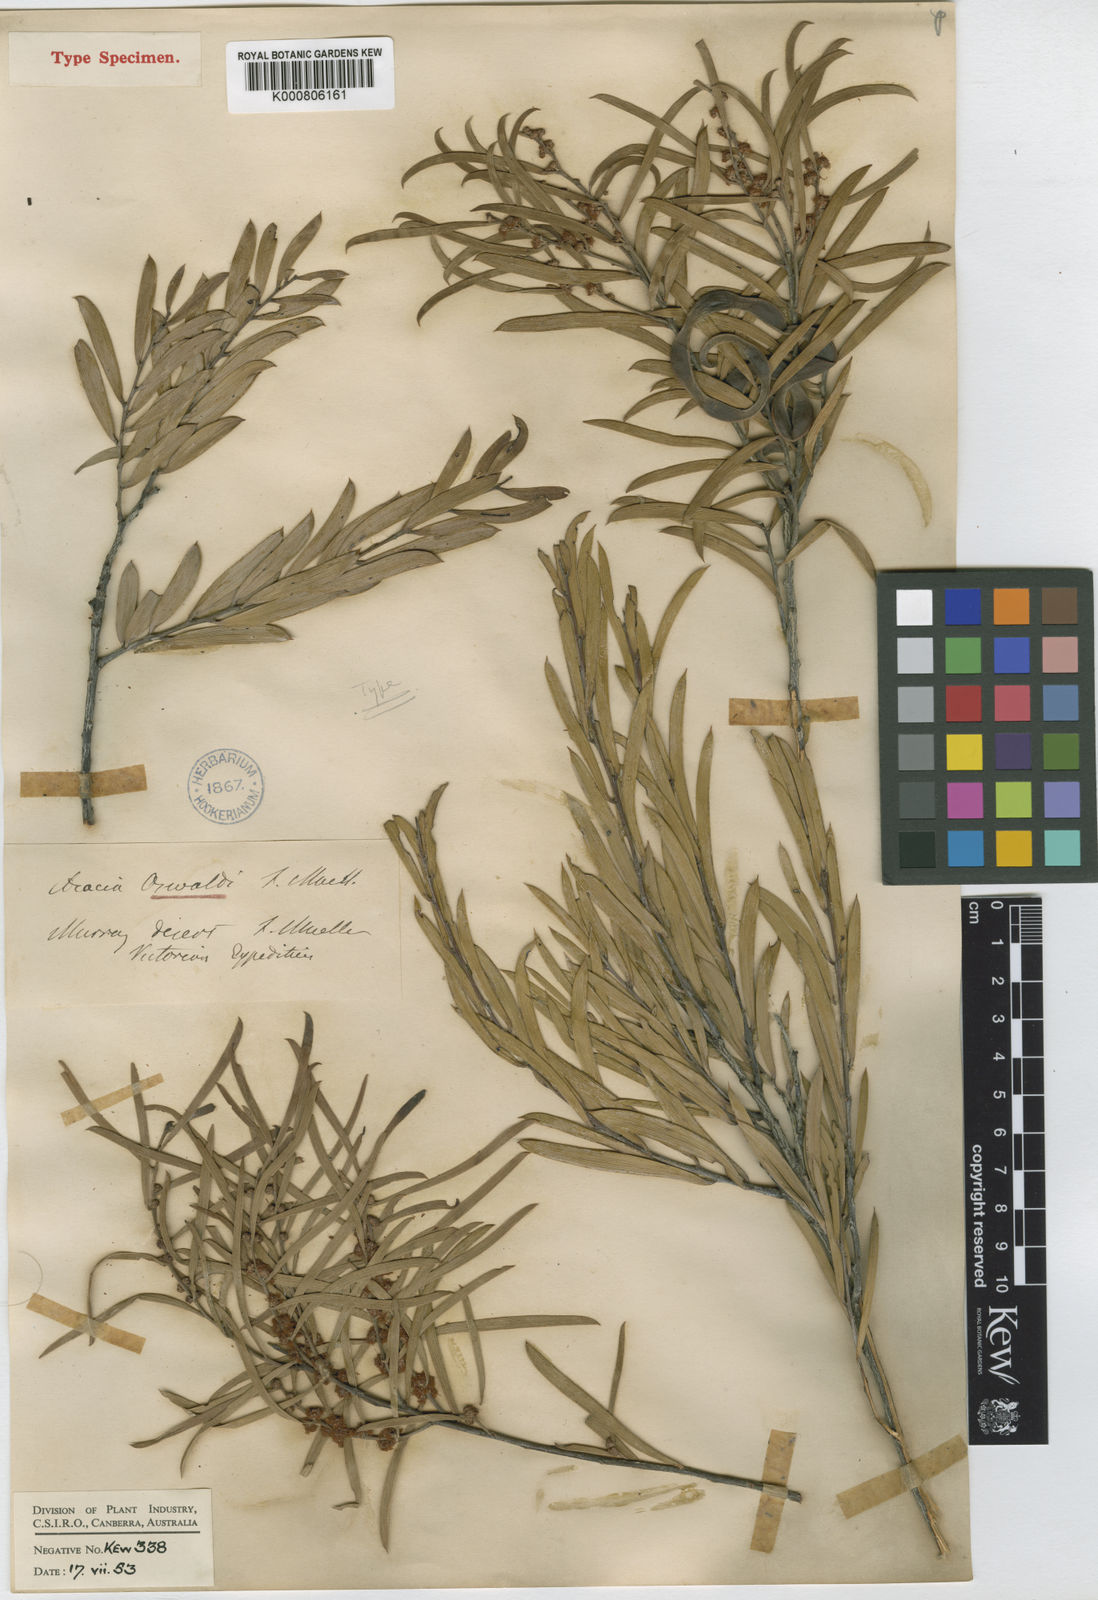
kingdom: Plantae
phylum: Tracheophyta
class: Magnoliopsida
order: Fabales
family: Fabaceae
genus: Acacia
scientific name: Acacia oswaldii
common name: Umbrella wattle
